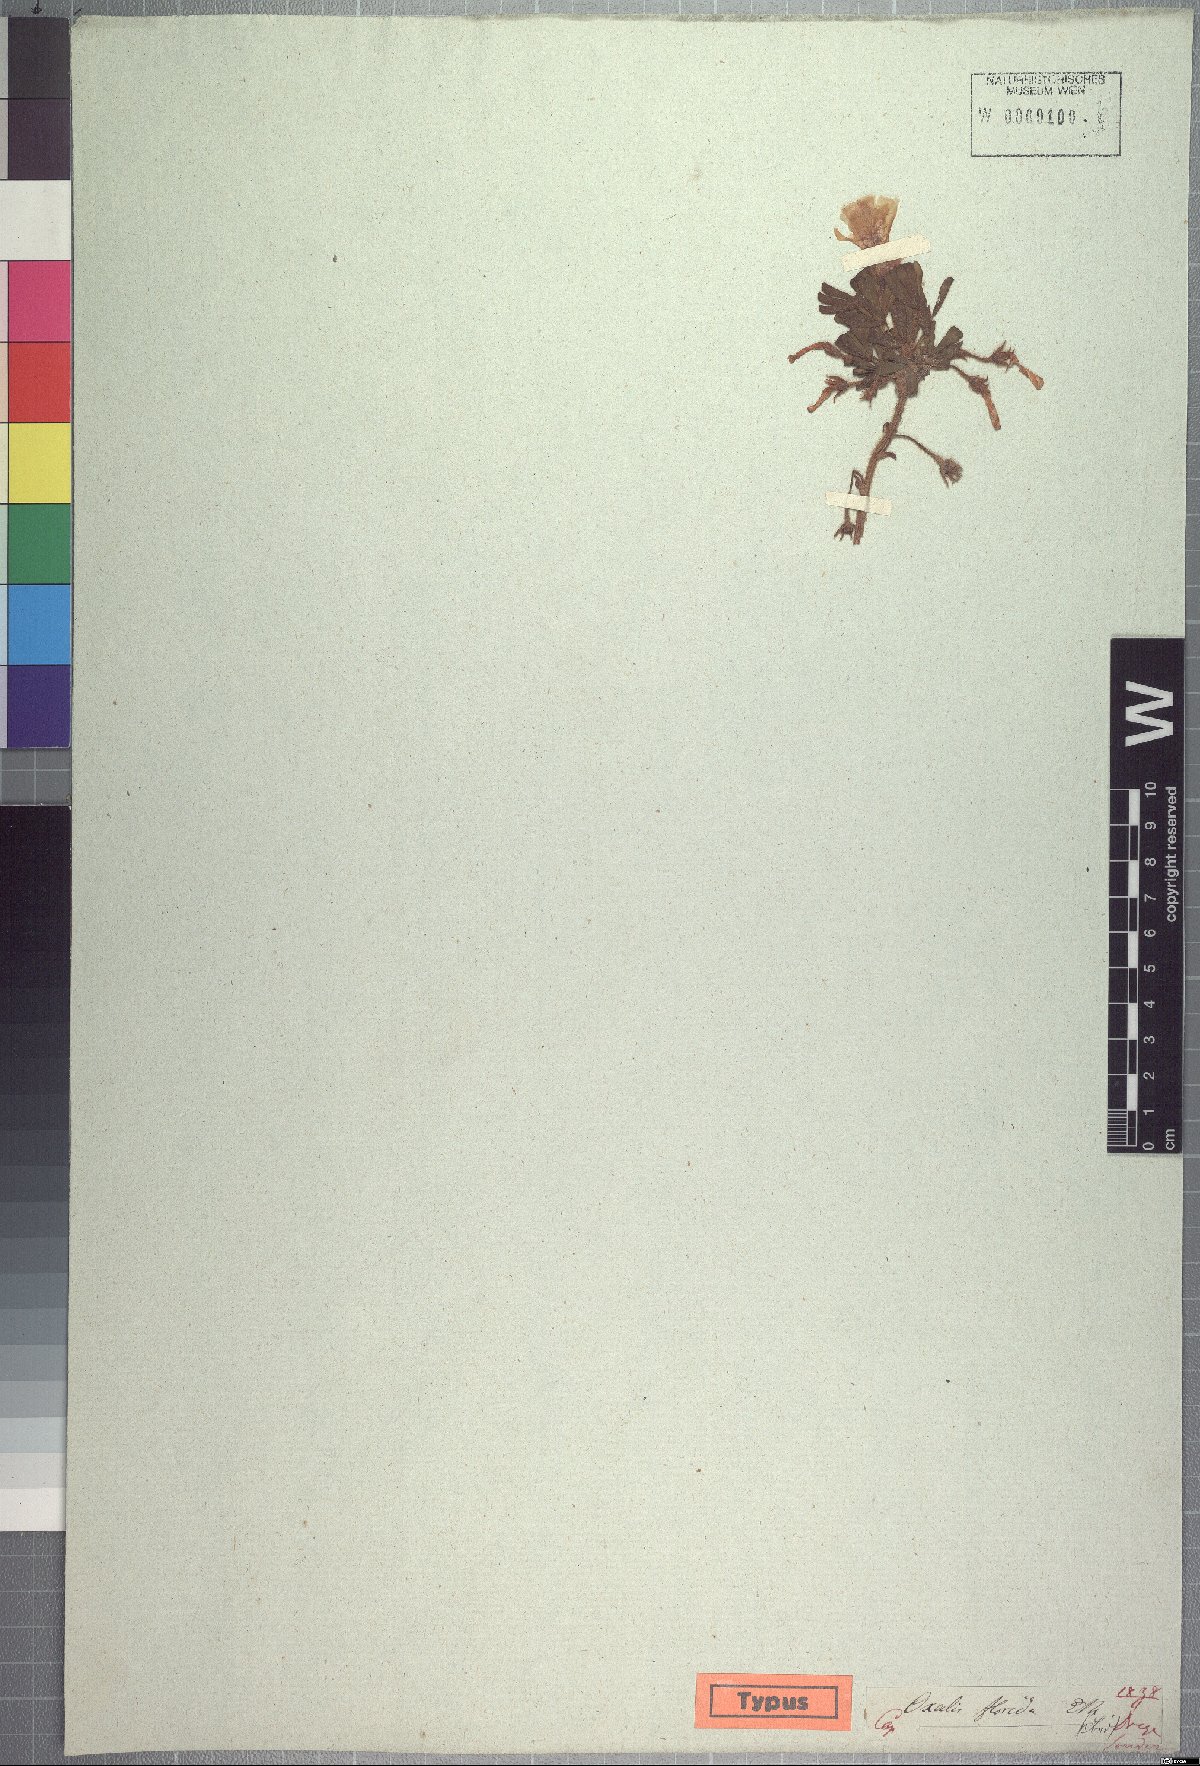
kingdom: Plantae
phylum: Tracheophyta
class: Magnoliopsida
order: Oxalidales
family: Oxalidaceae
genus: Oxalis
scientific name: Oxalis adspersa
